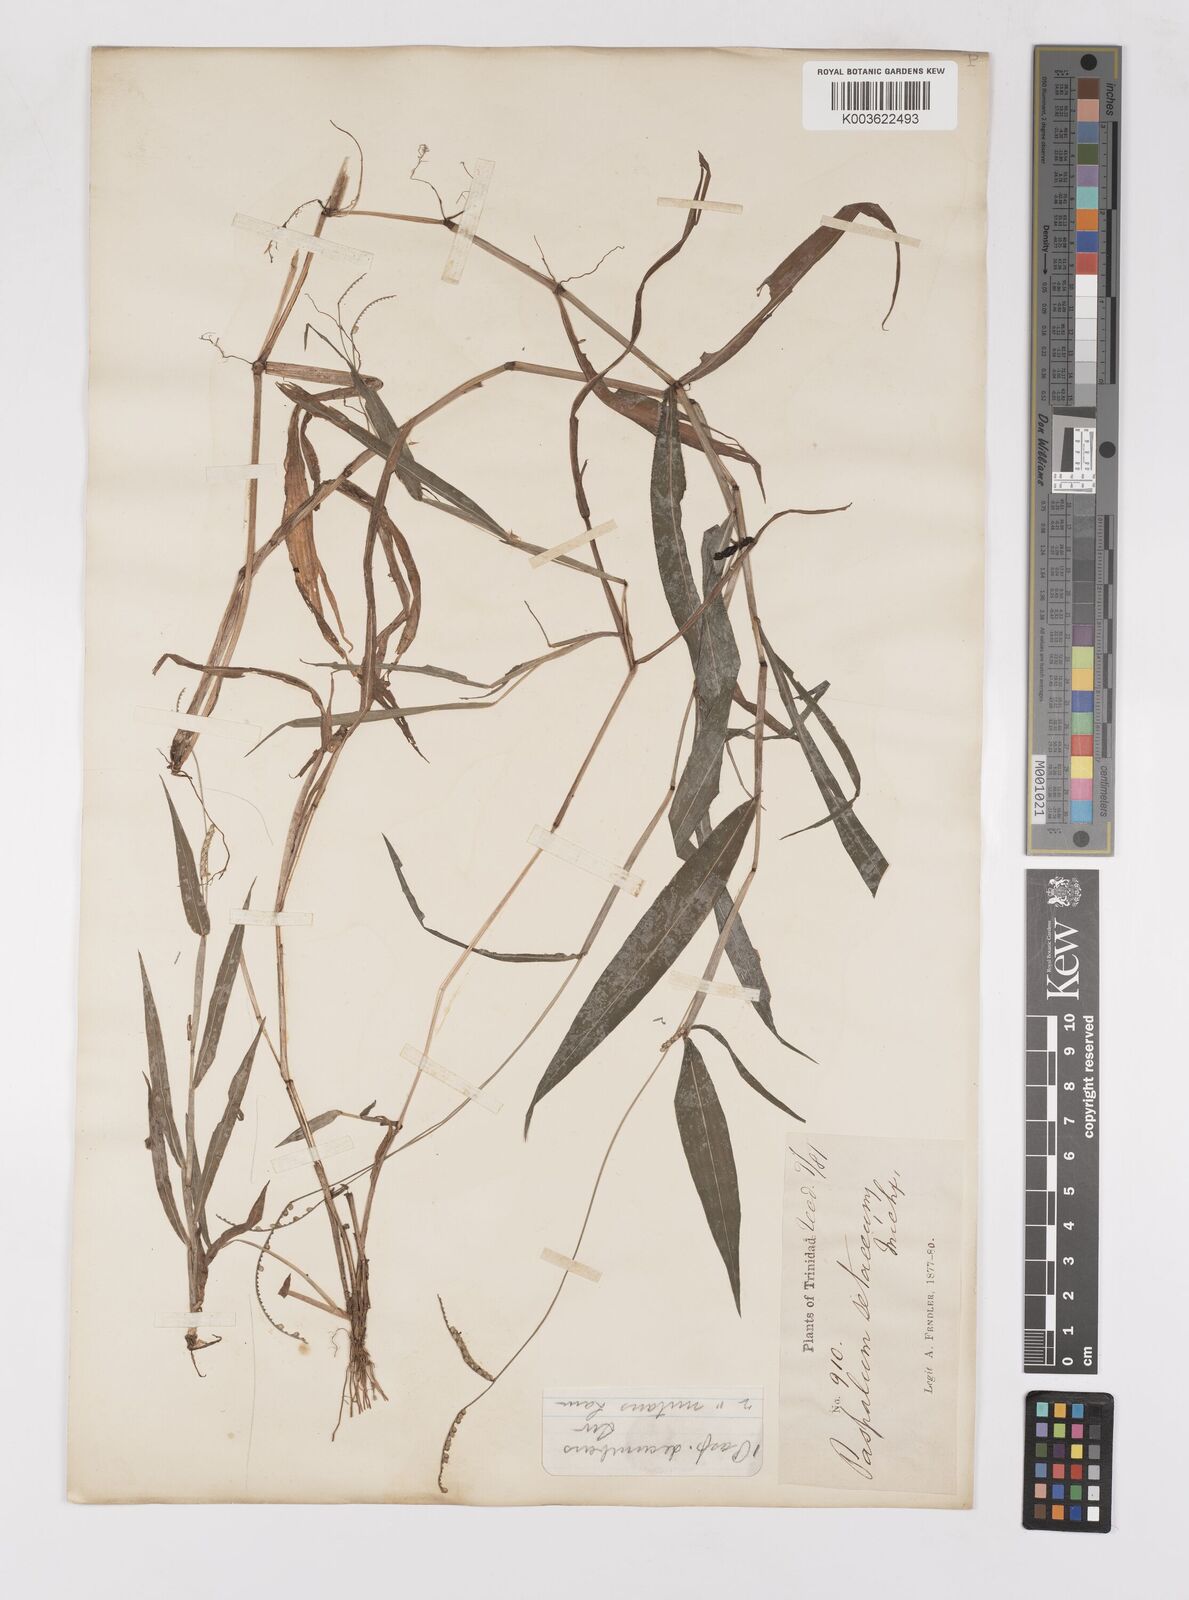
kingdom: Plantae
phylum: Tracheophyta
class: Liliopsida
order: Poales
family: Poaceae
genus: Paspalum
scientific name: Paspalum decumbens
